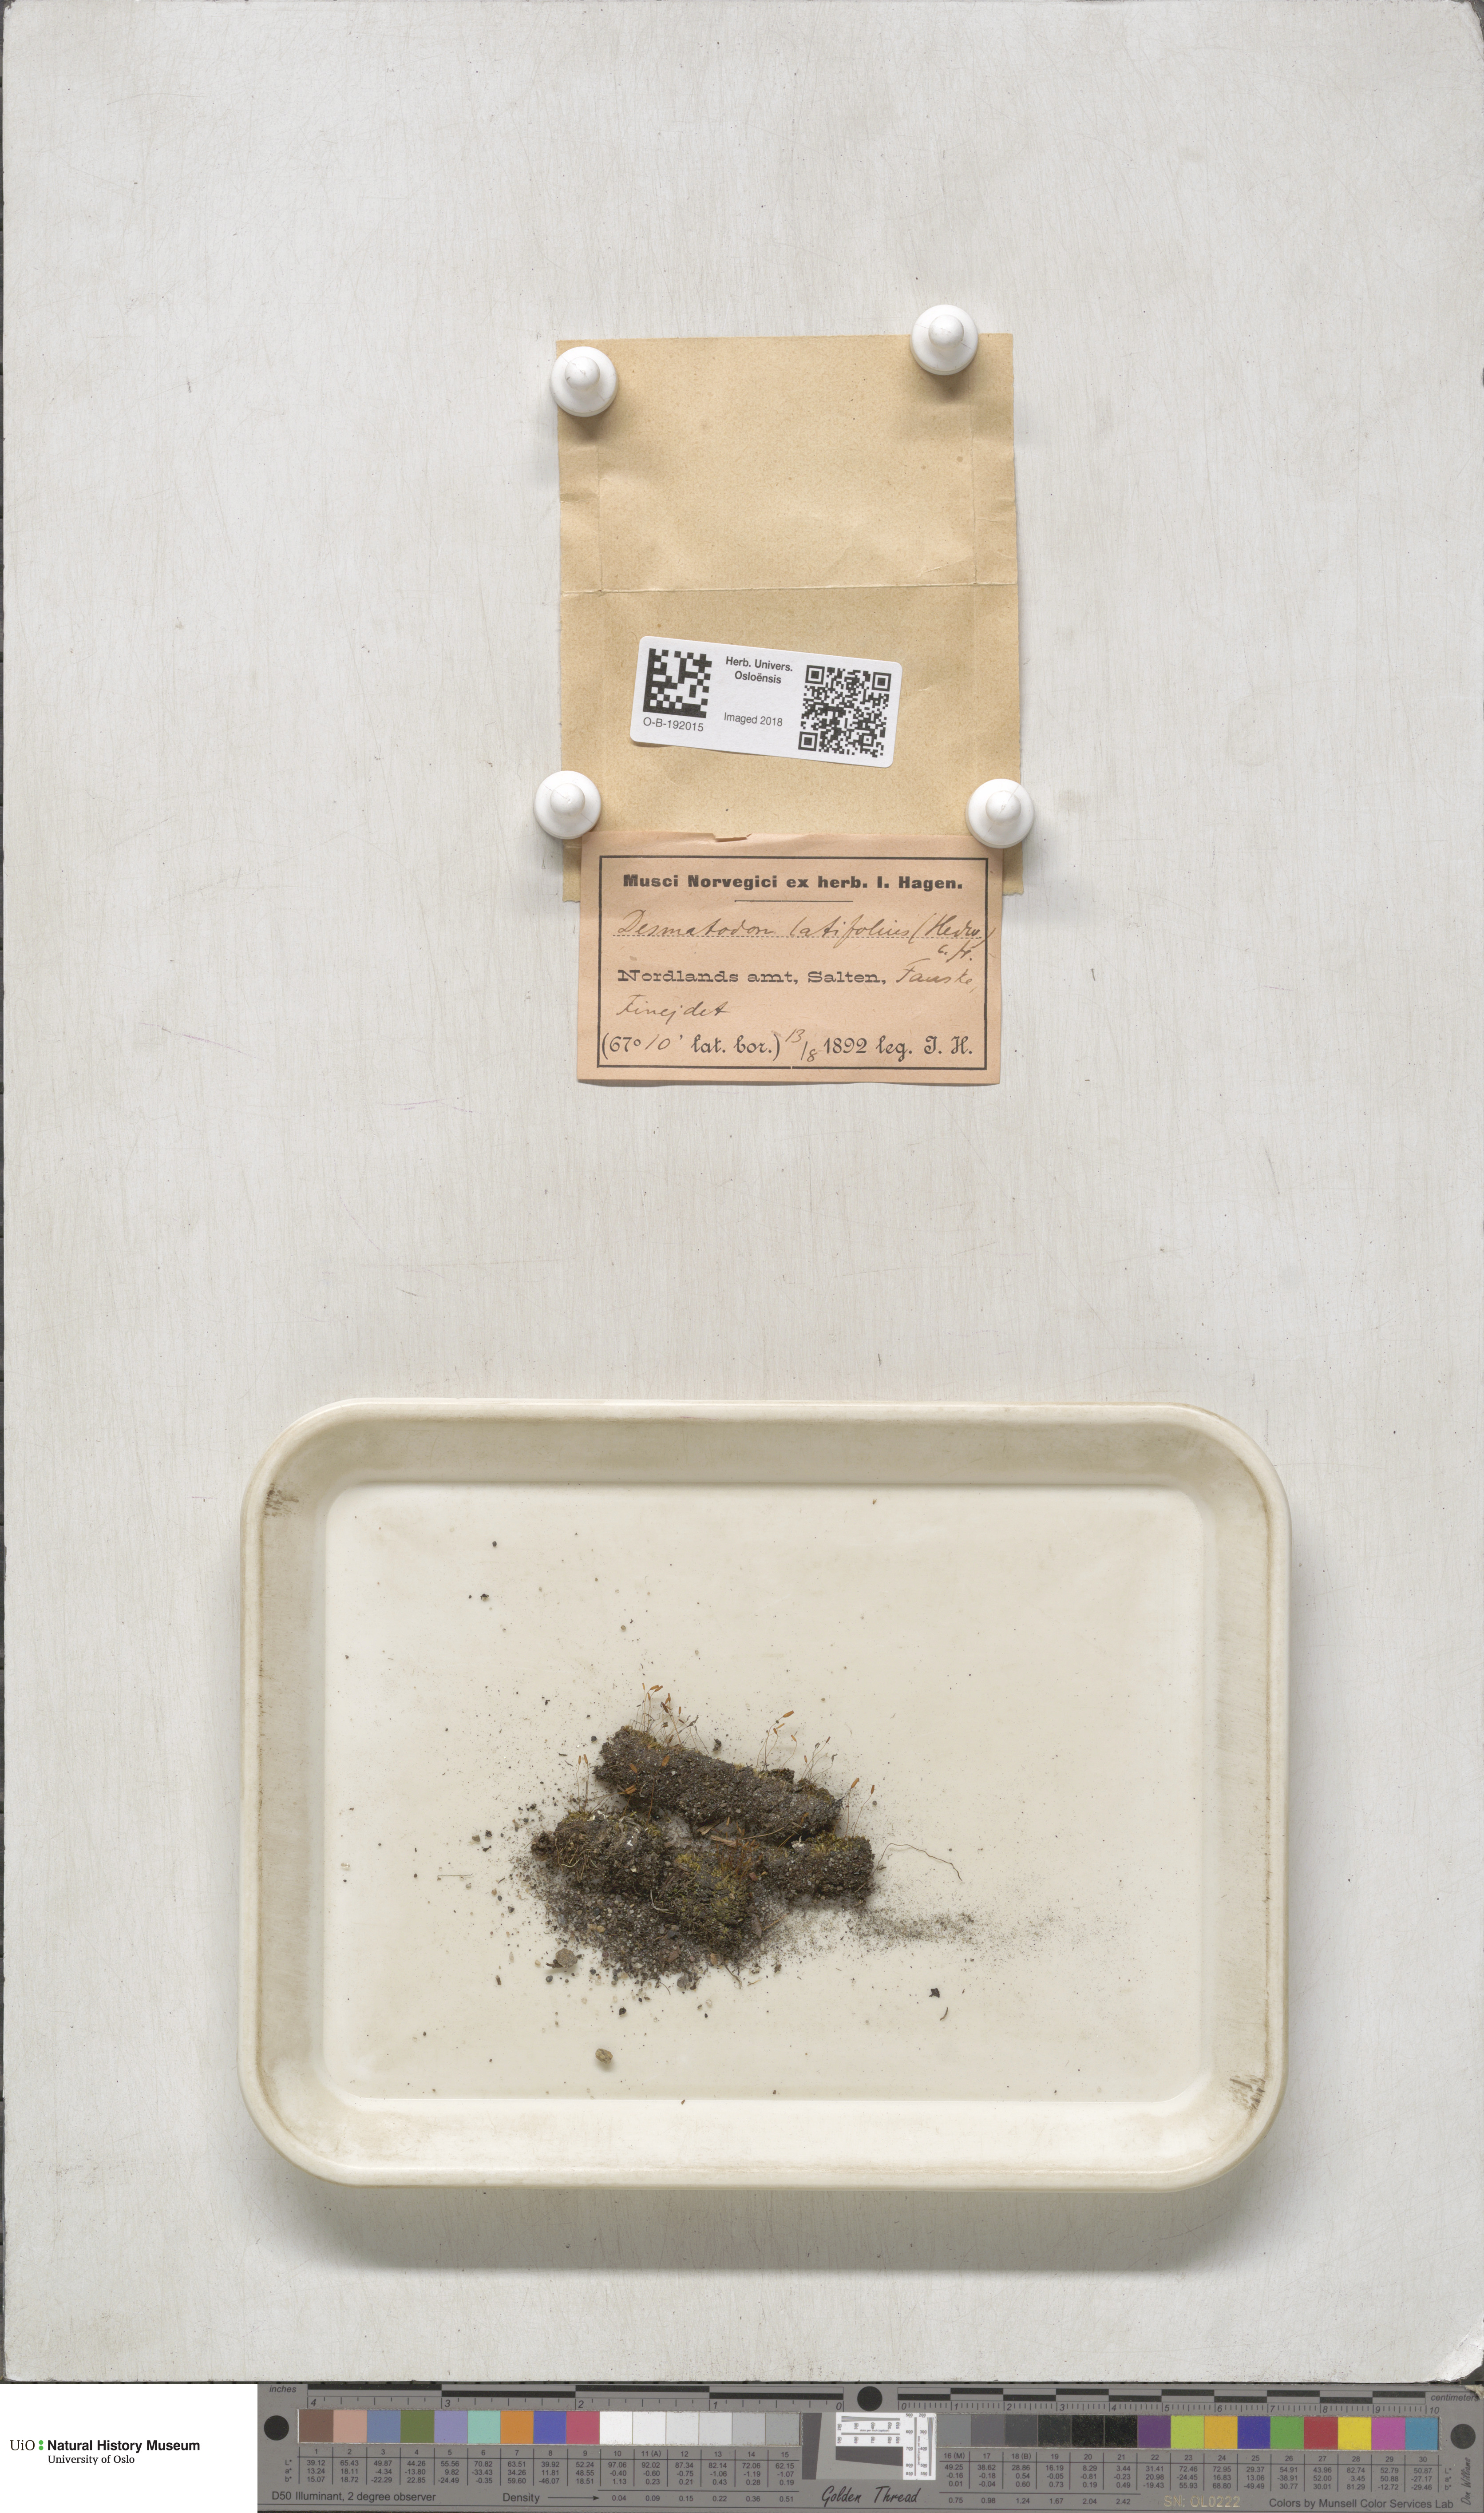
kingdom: Plantae
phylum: Bryophyta
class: Bryopsida
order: Pottiales
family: Pottiaceae
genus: Tortula
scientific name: Tortula hoppeana
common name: Hoppe's screw moss
